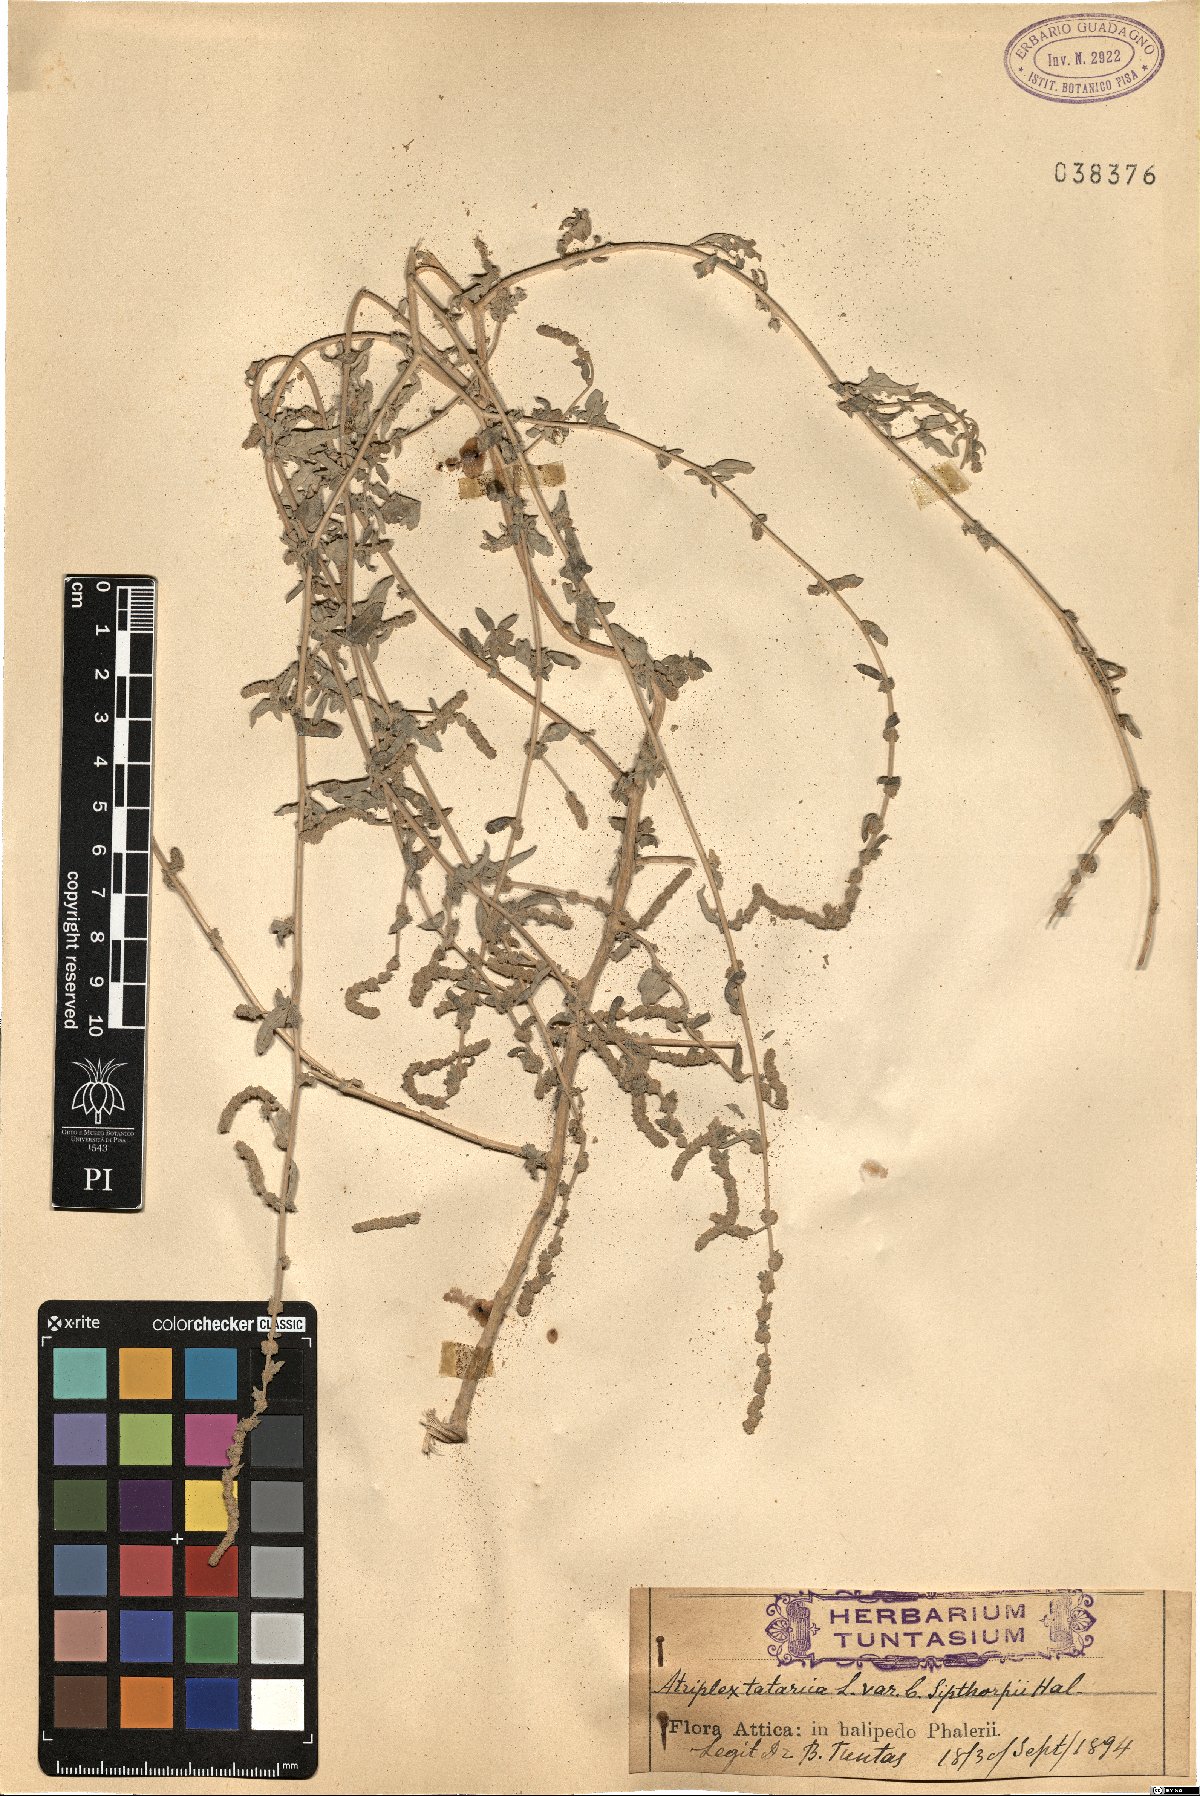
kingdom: Plantae
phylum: Tracheophyta
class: Magnoliopsida
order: Caryophyllales
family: Amaranthaceae
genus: Atriplex
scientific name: Atriplex recurva
